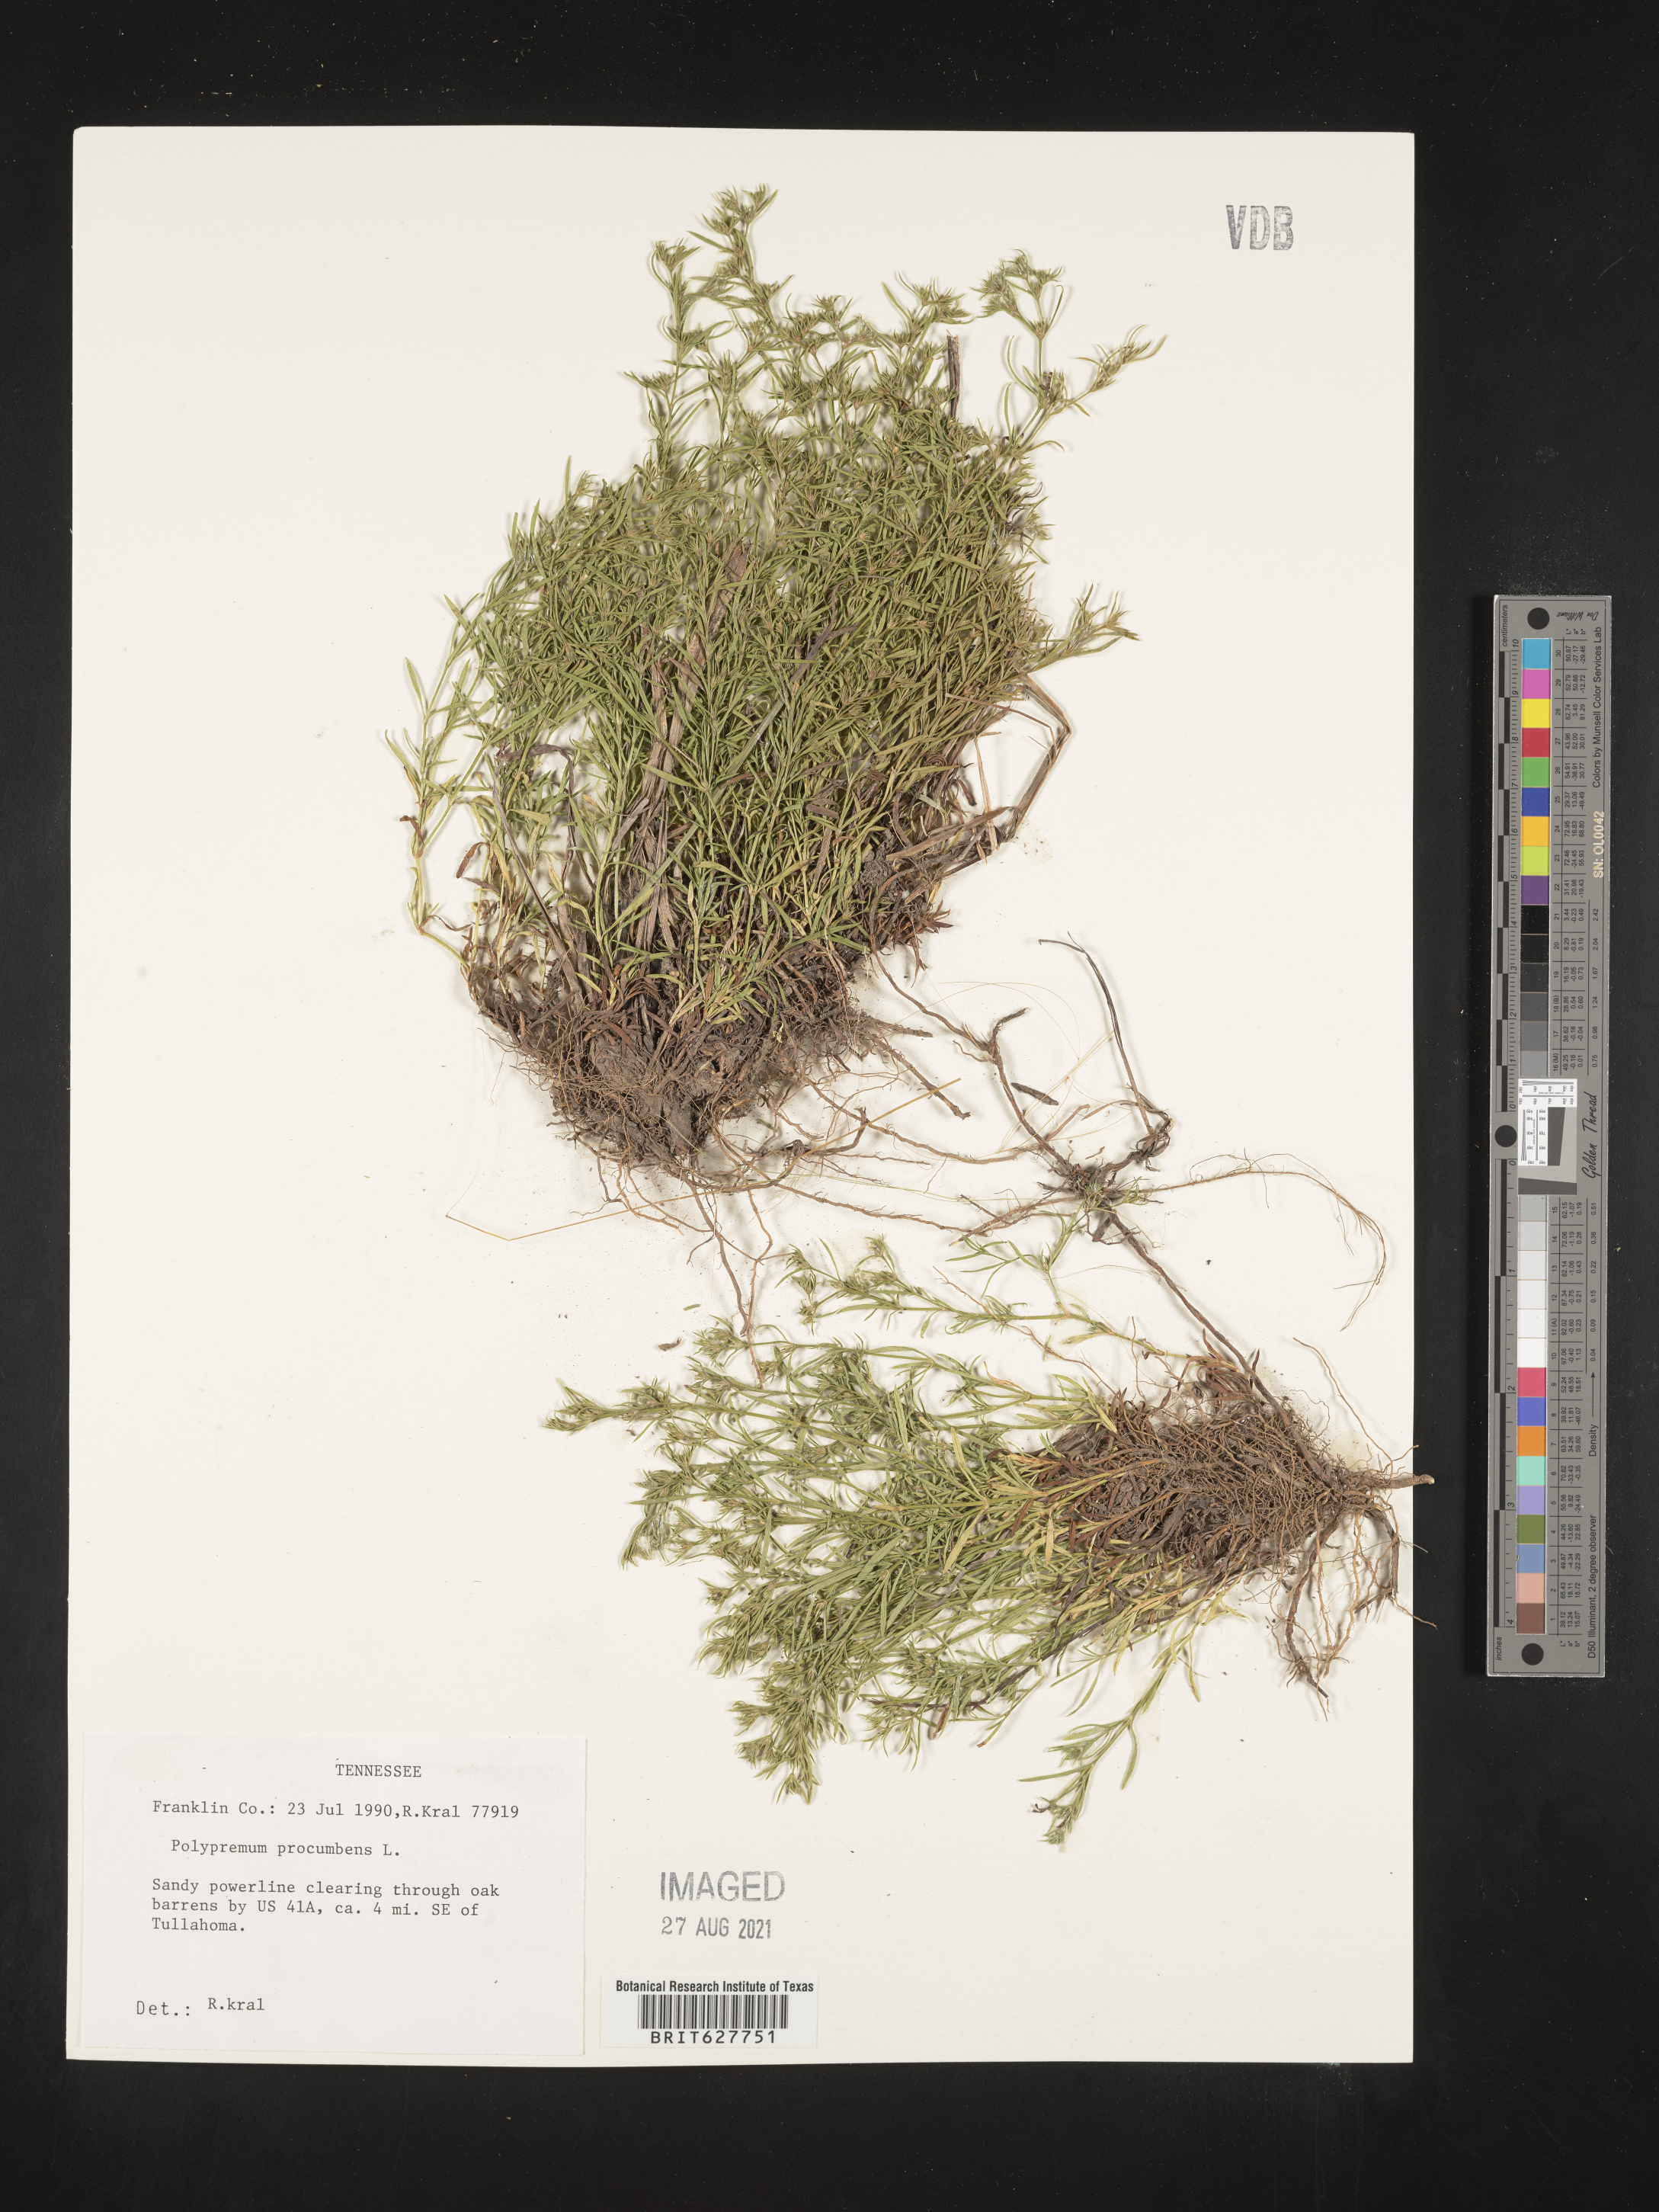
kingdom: Plantae
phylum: Tracheophyta
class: Magnoliopsida
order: Lamiales
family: Tetrachondraceae
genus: Polypremum
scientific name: Polypremum procumbens
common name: Juniper-leaf
